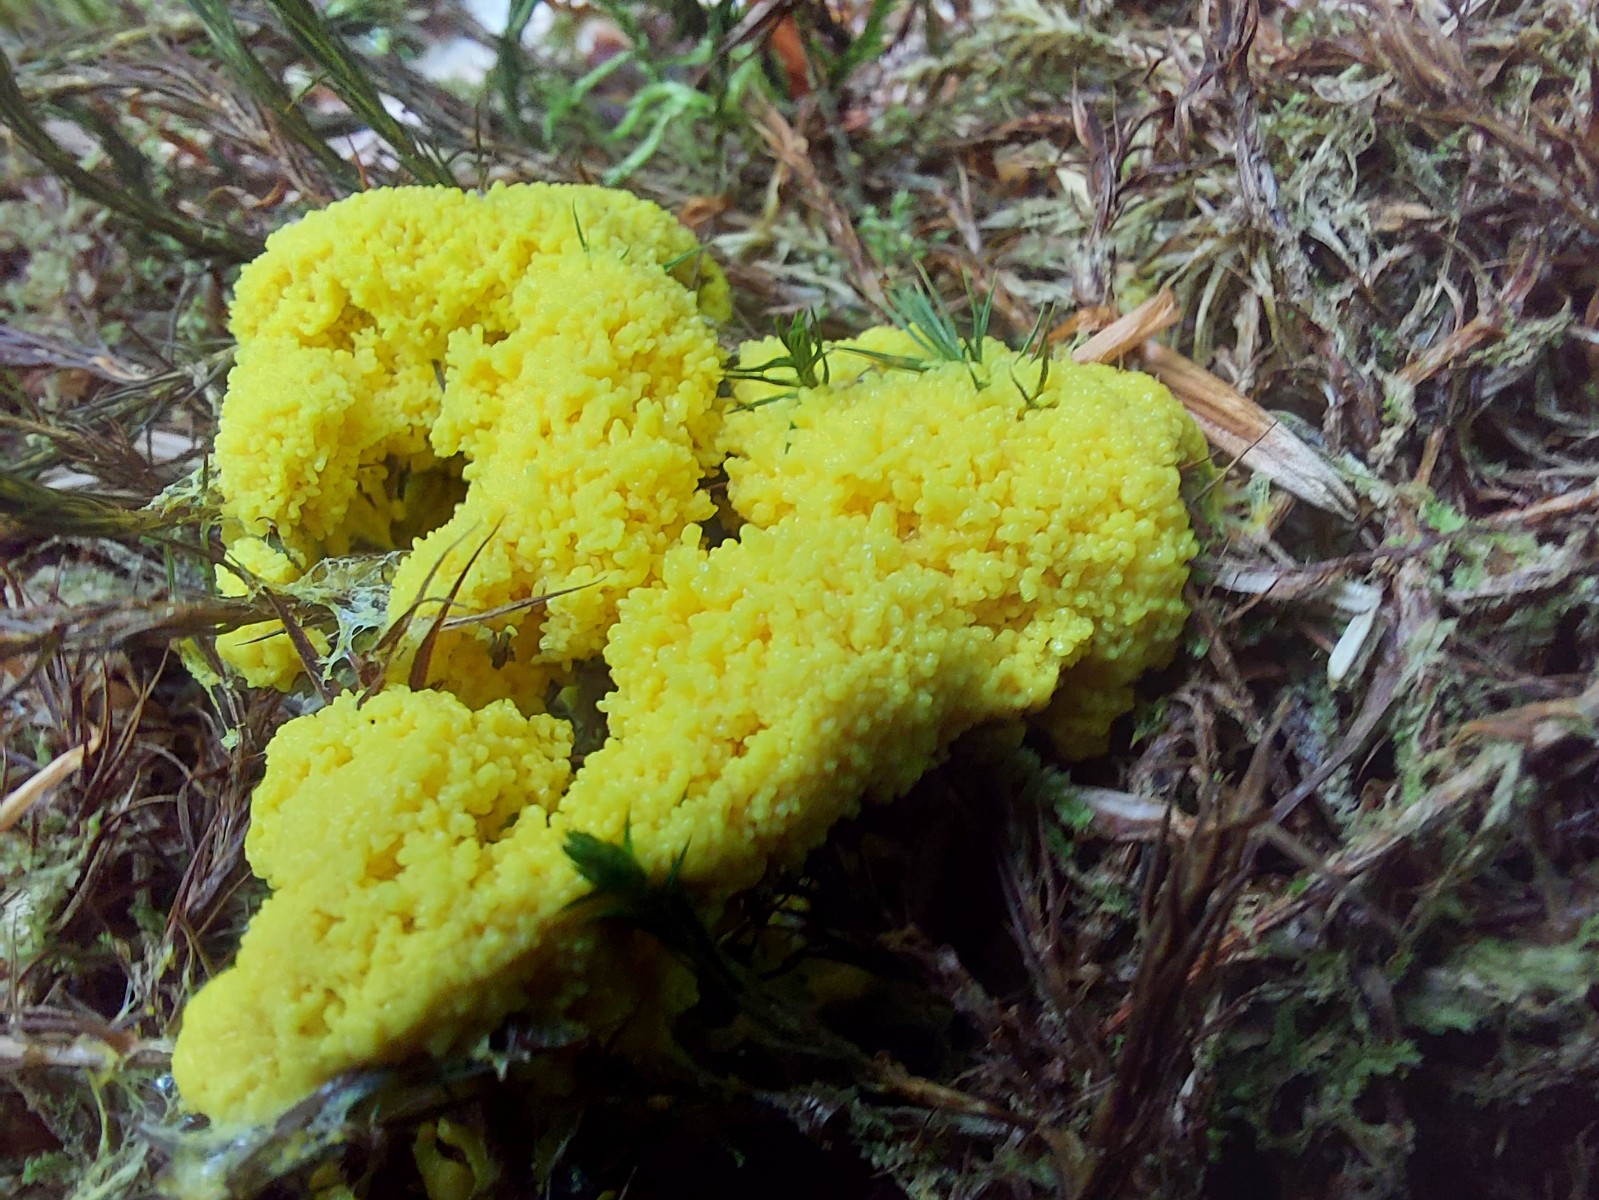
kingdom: Protozoa
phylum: Mycetozoa
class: Myxomycetes
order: Physarales
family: Physaraceae
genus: Fuligo
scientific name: Fuligo septica
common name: gul troldsmør
